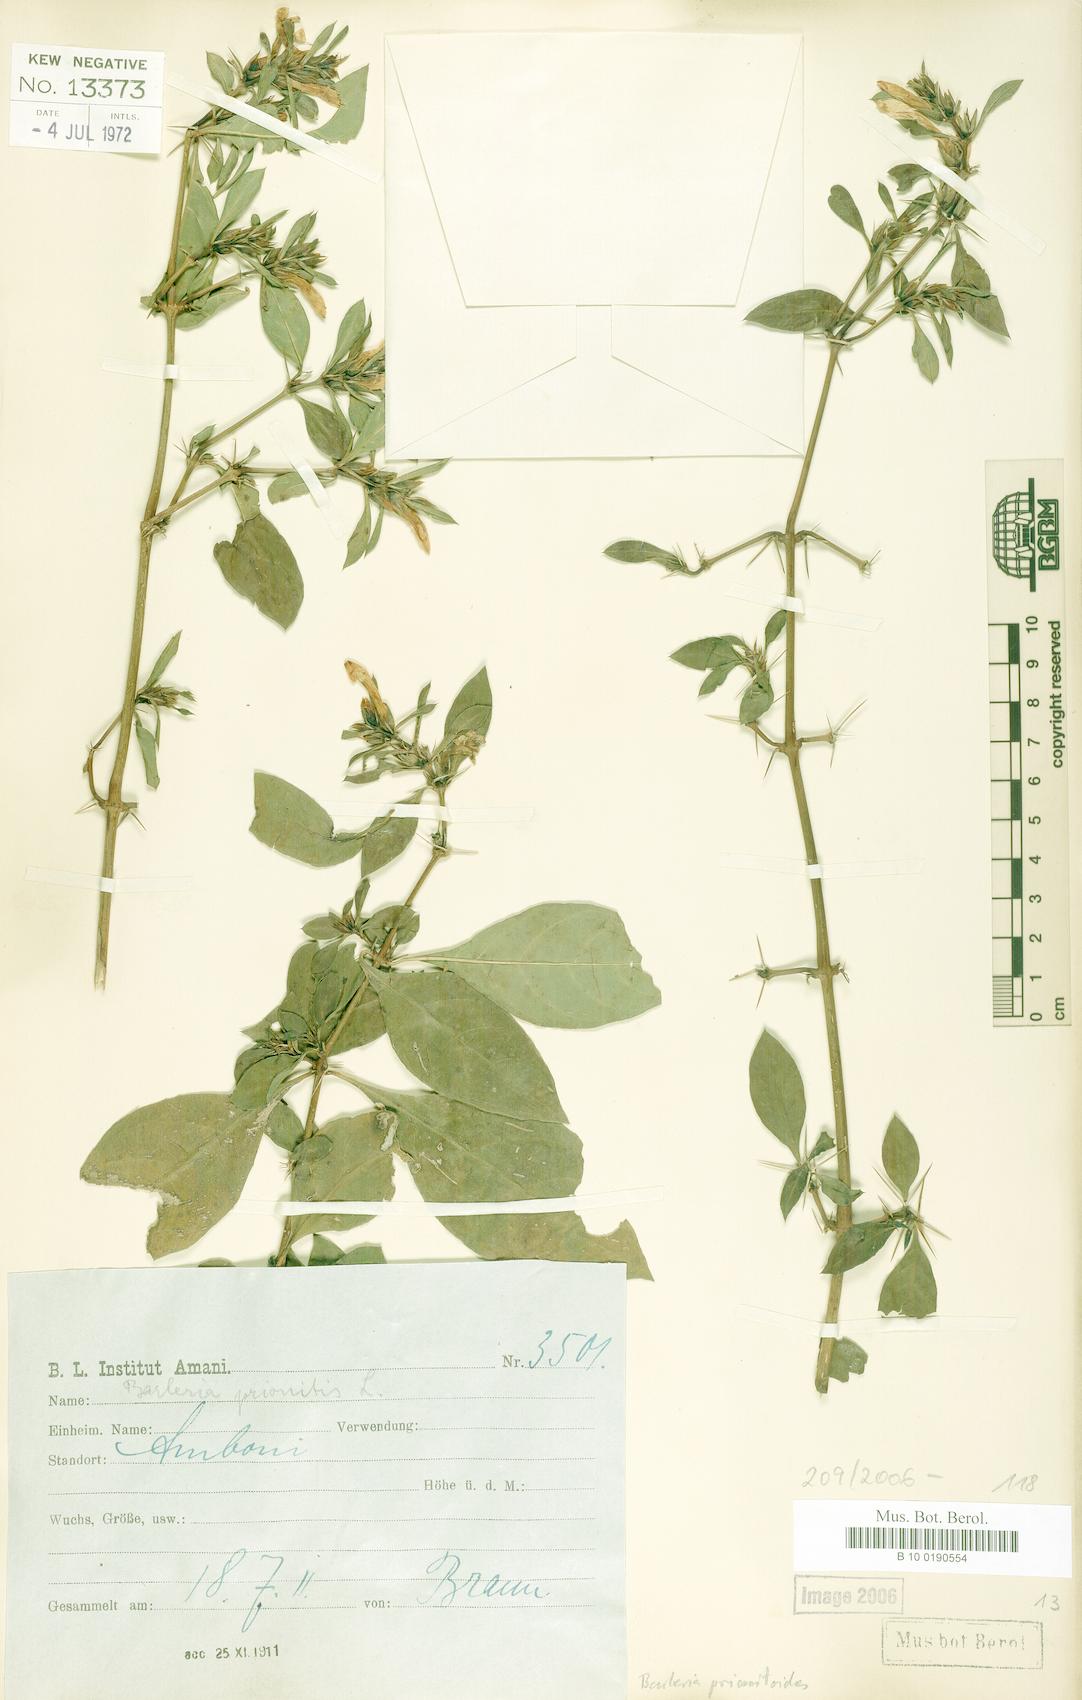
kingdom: Plantae
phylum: Tracheophyta
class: Magnoliopsida
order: Lamiales
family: Acanthaceae
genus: Barleria
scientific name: Barleria prionitis
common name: Barleria
